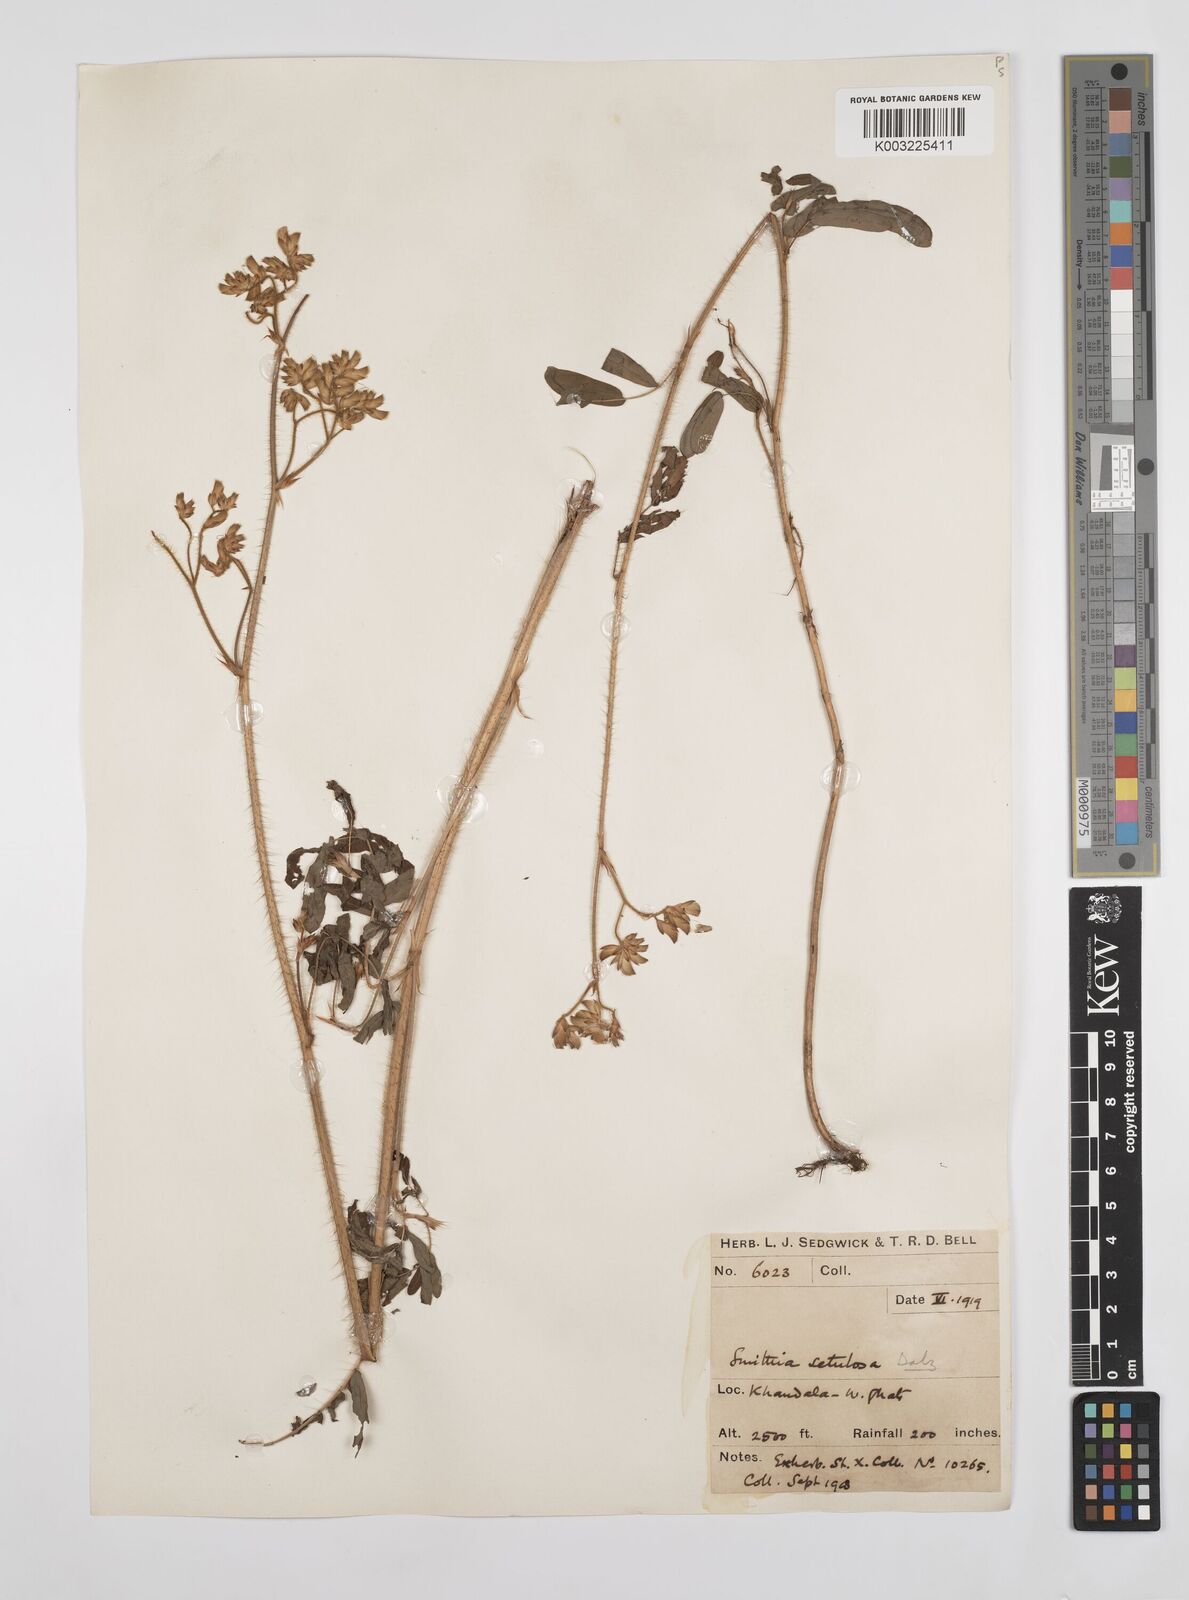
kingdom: Plantae
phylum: Tracheophyta
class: Magnoliopsida
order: Fabales
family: Fabaceae
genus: Smithia
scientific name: Smithia setulosa
